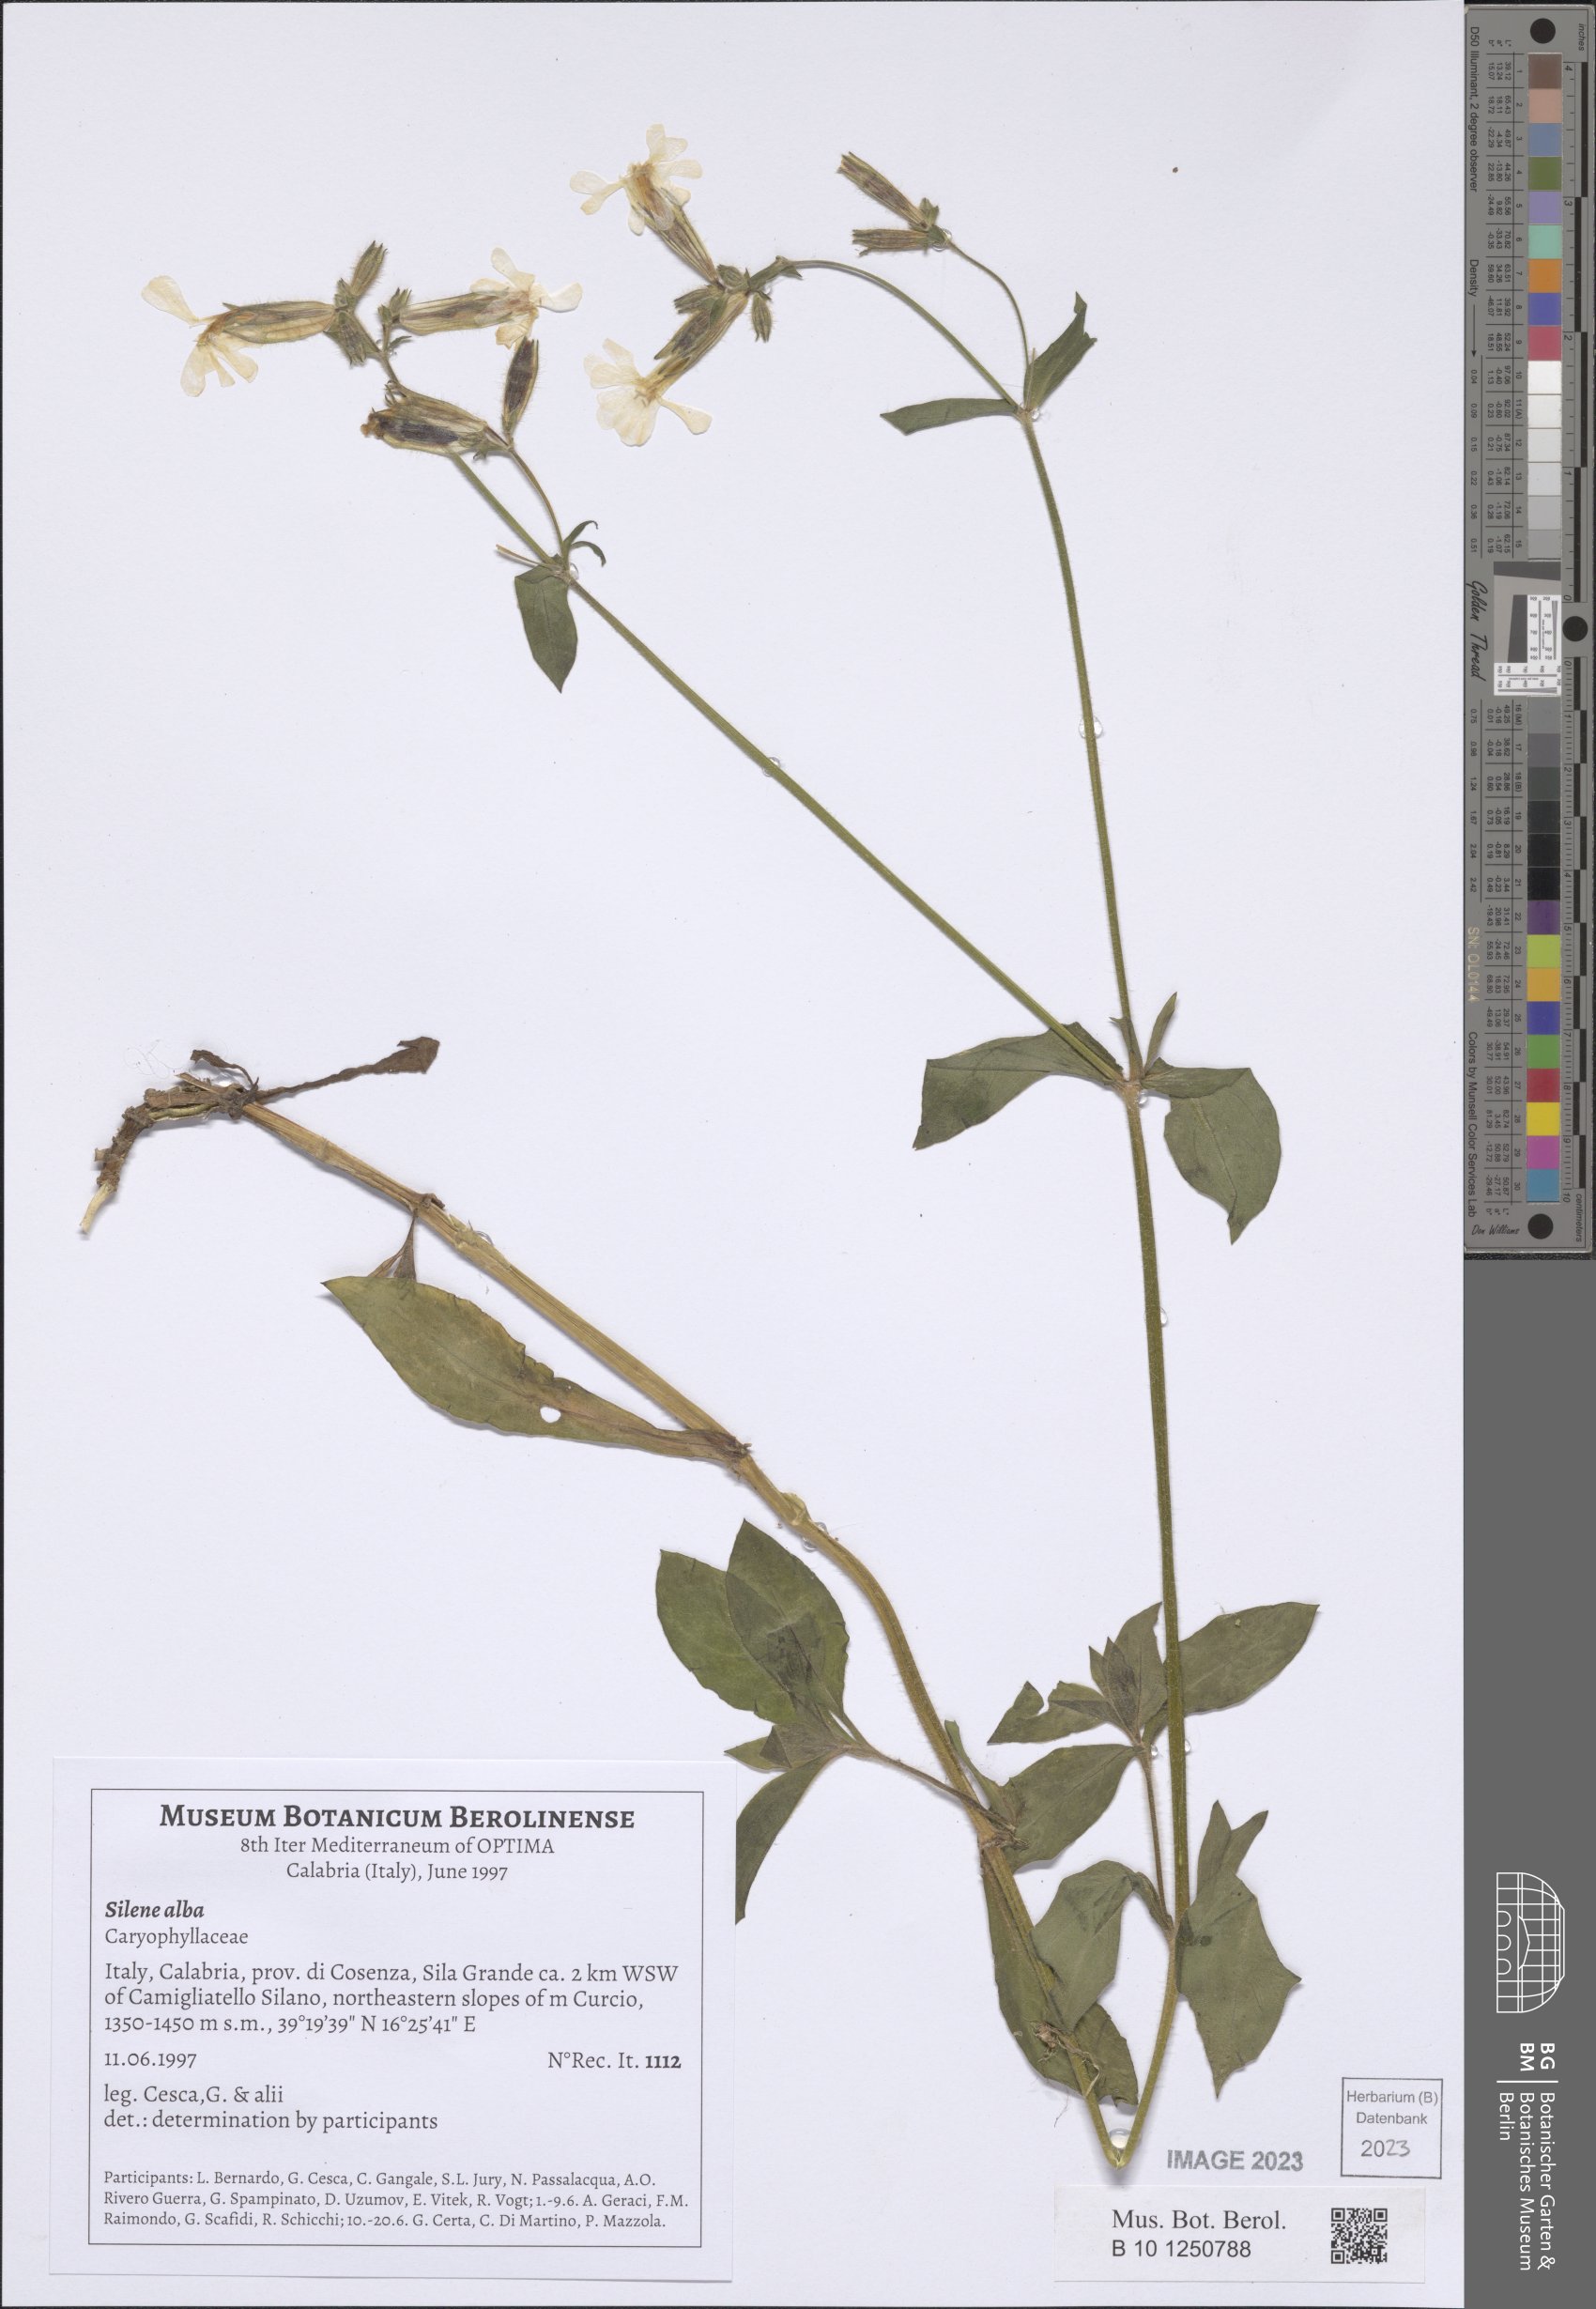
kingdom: Plantae
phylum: Tracheophyta
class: Magnoliopsida
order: Caryophyllales
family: Caryophyllaceae
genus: Silene
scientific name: Silene latifolia
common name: White campion
